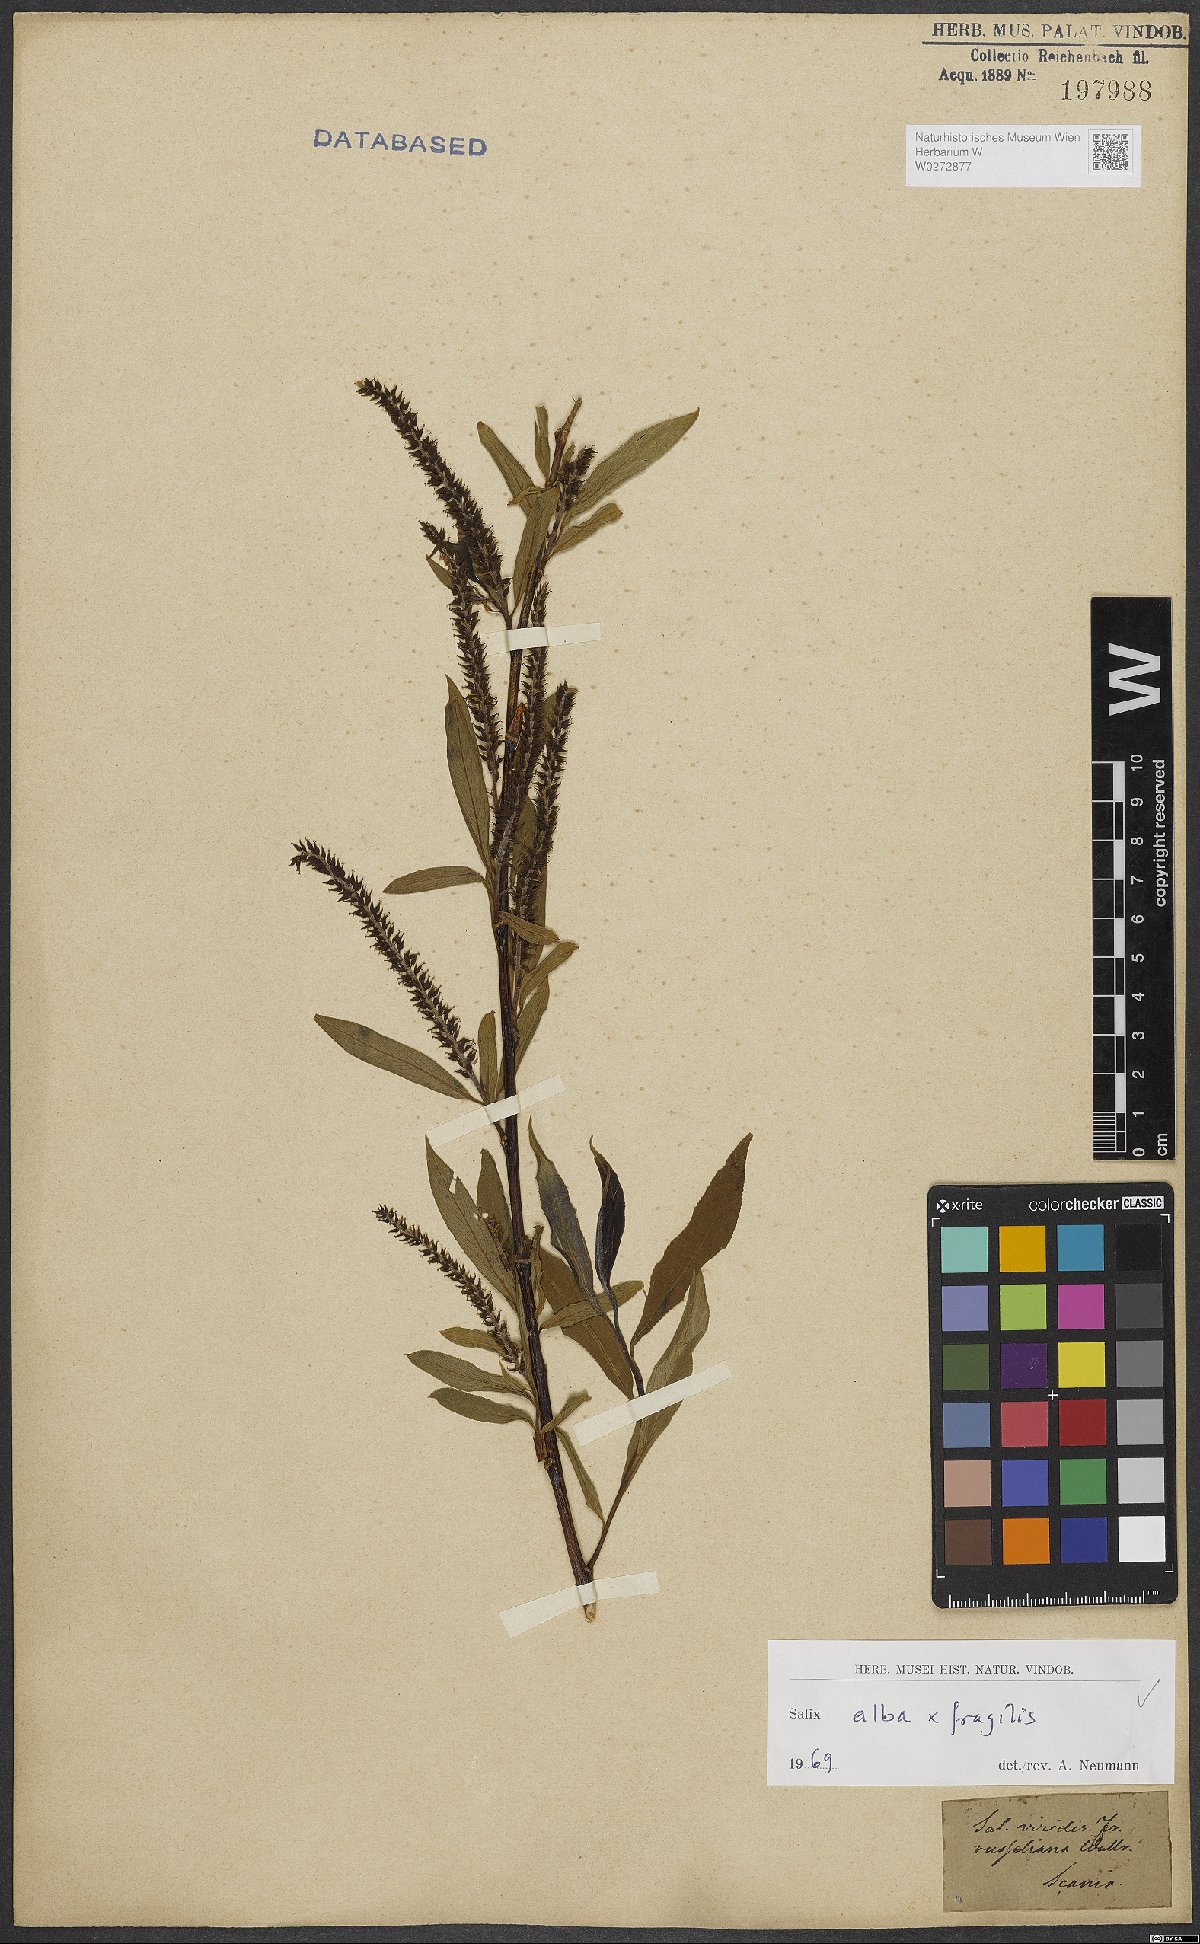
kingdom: Plantae
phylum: Tracheophyta
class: Magnoliopsida
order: Malpighiales
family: Salicaceae
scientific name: Salicaceae
